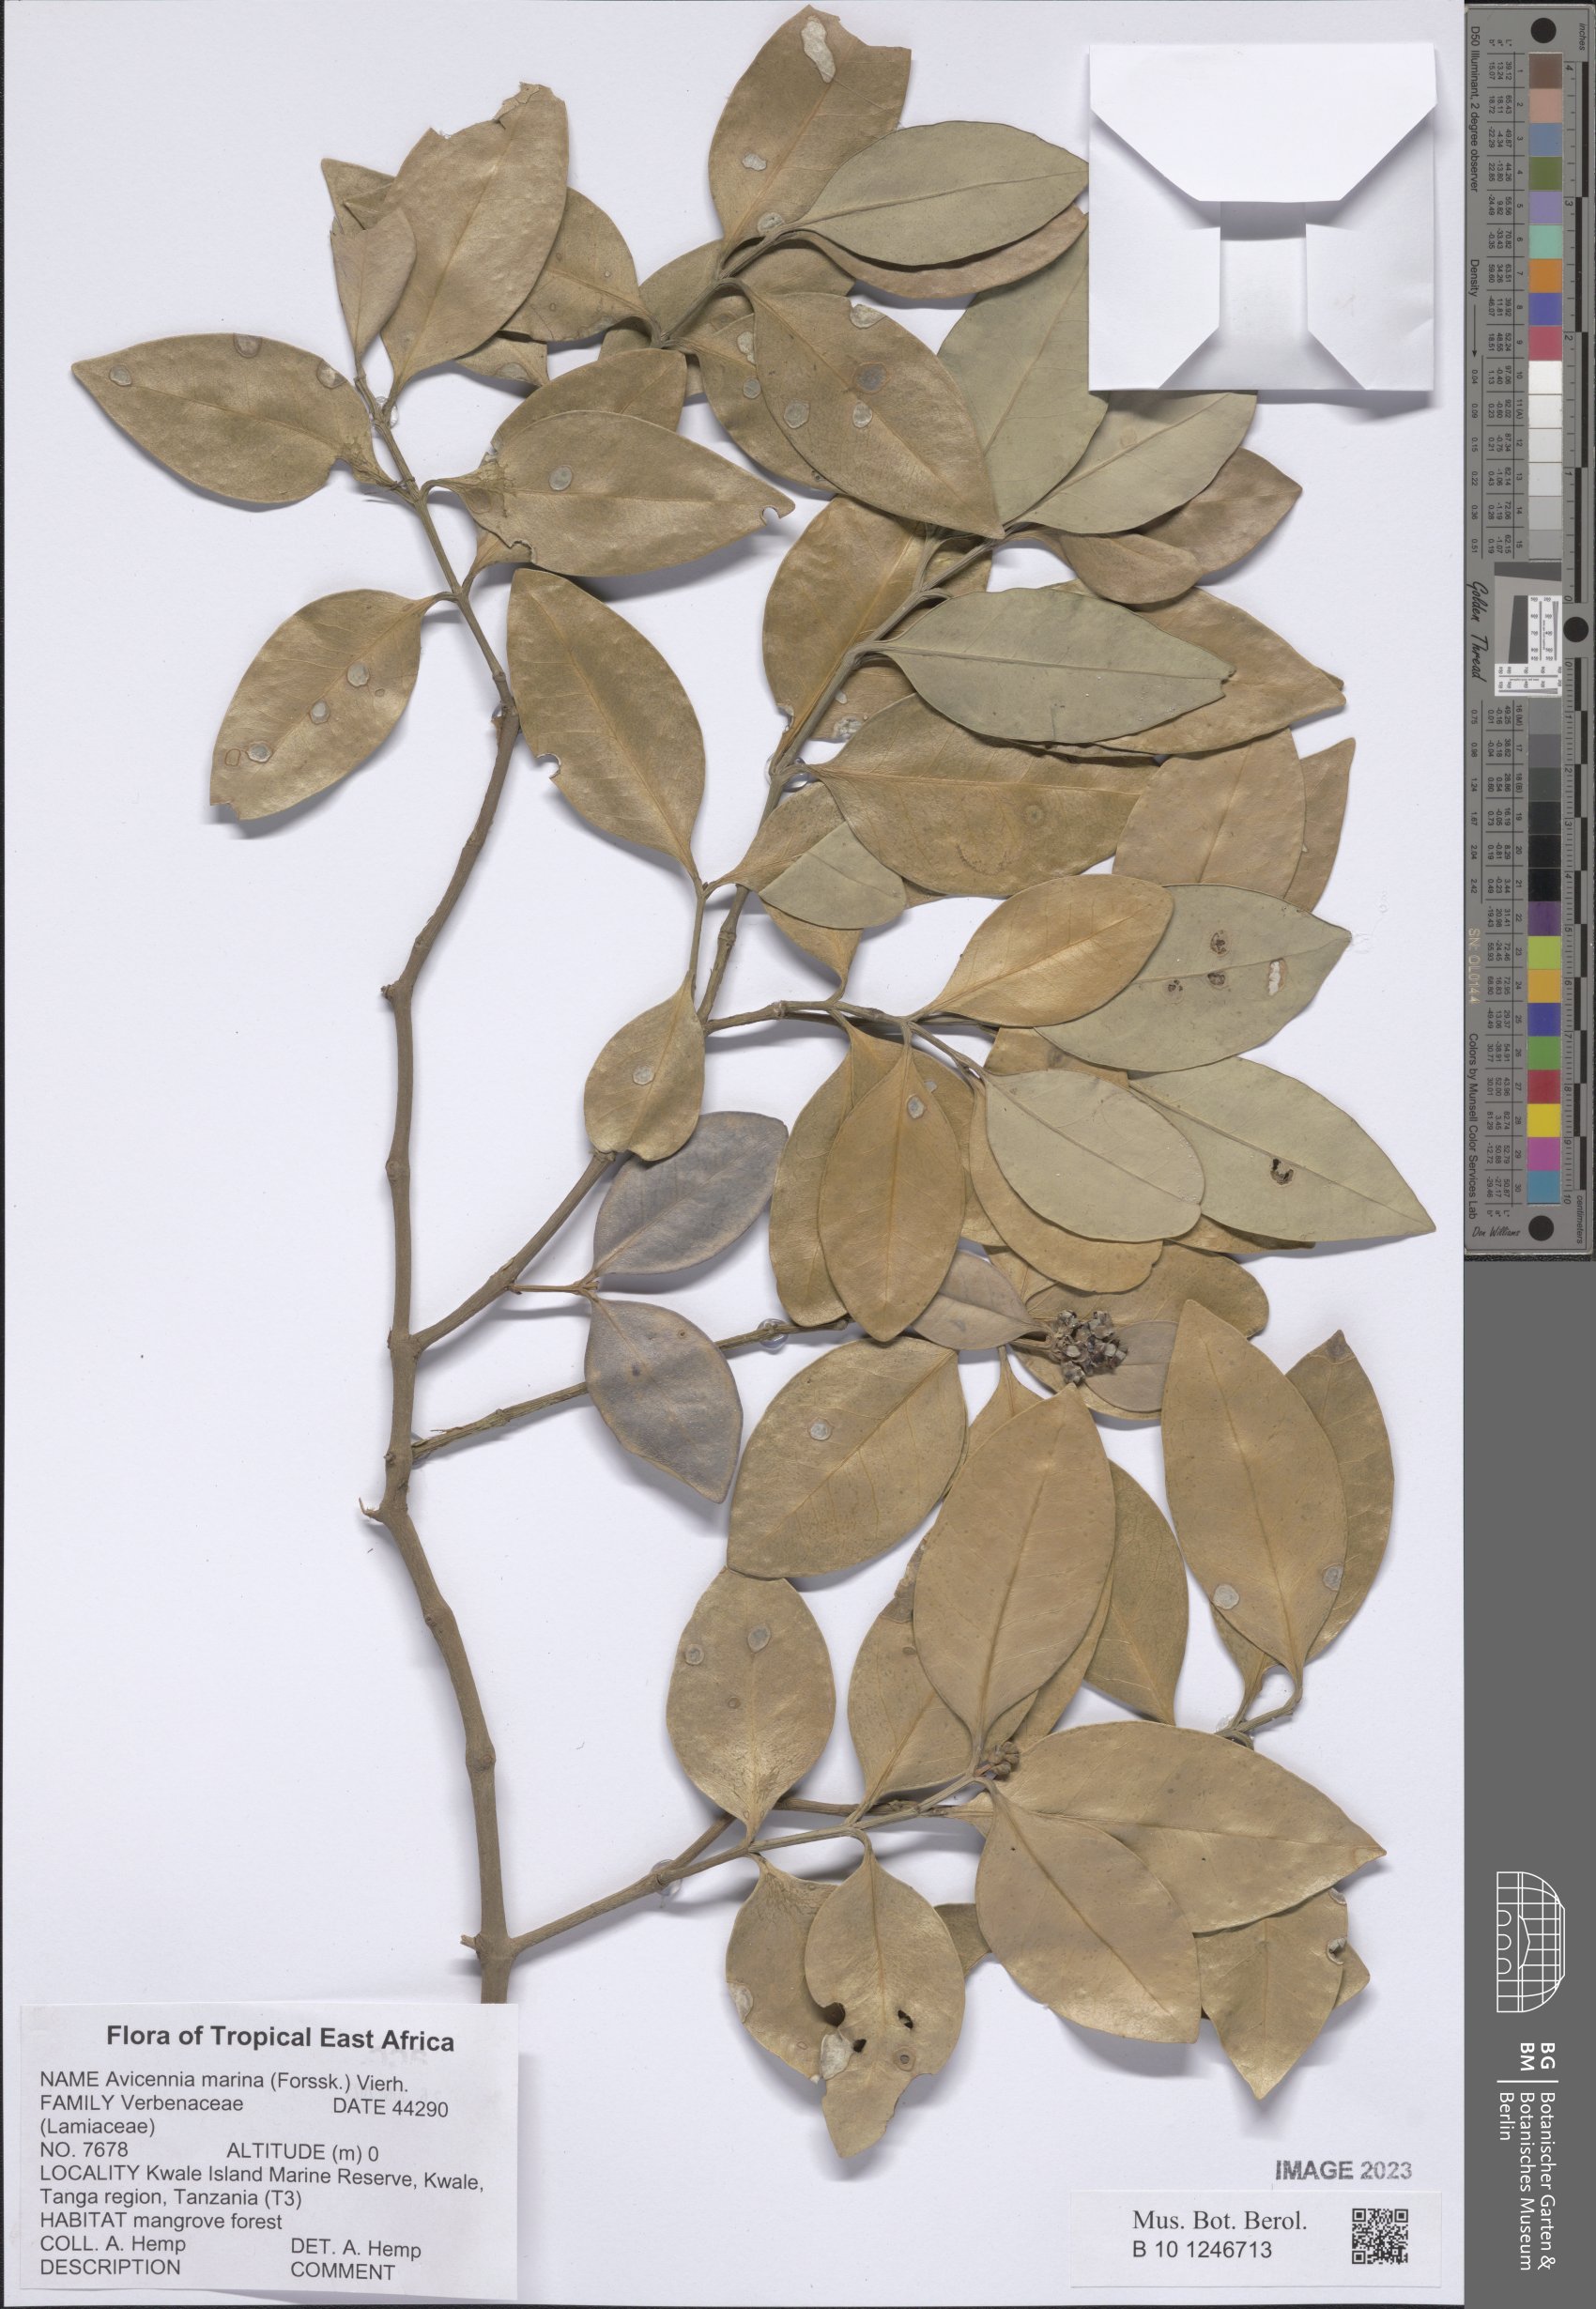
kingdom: Plantae
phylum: Tracheophyta
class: Magnoliopsida
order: Lamiales
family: Acanthaceae
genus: Avicennia
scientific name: Avicennia marina
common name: Gray mangrove
